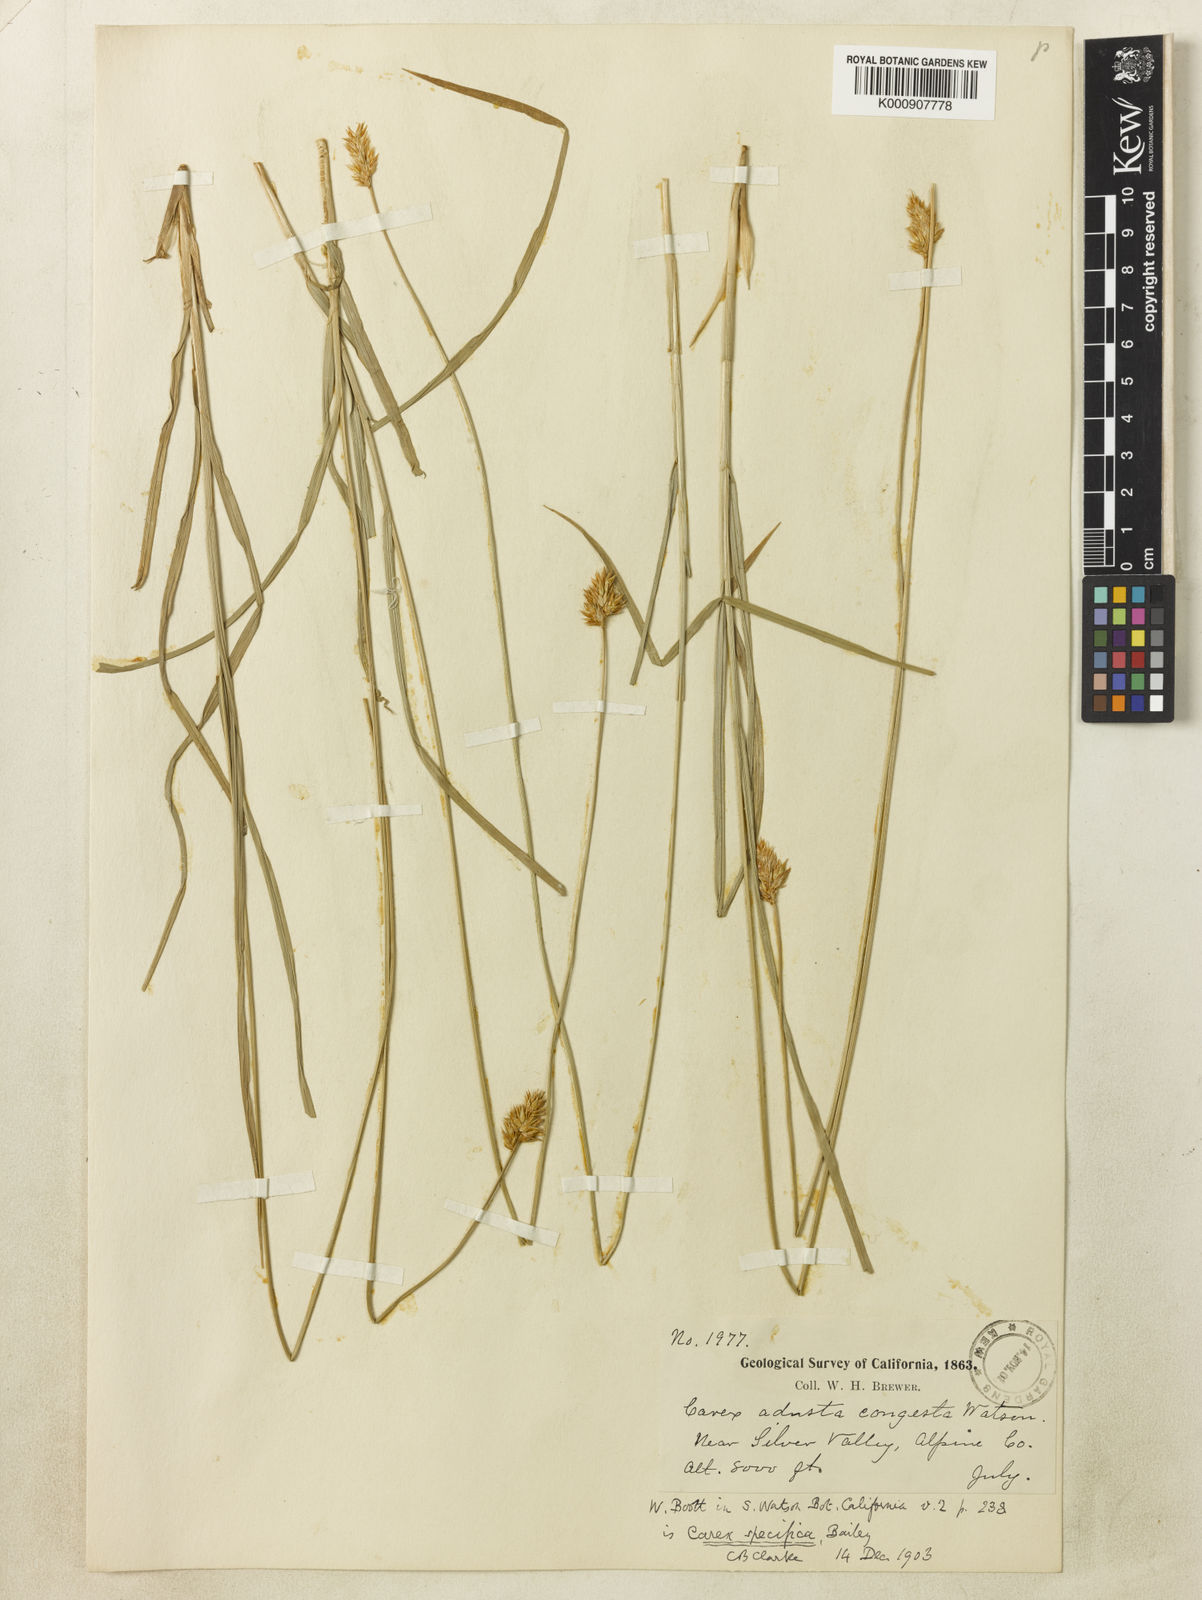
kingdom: Plantae
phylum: Tracheophyta
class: Liliopsida
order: Poales
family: Cyperaceae
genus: Carex
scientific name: Carex specifica
